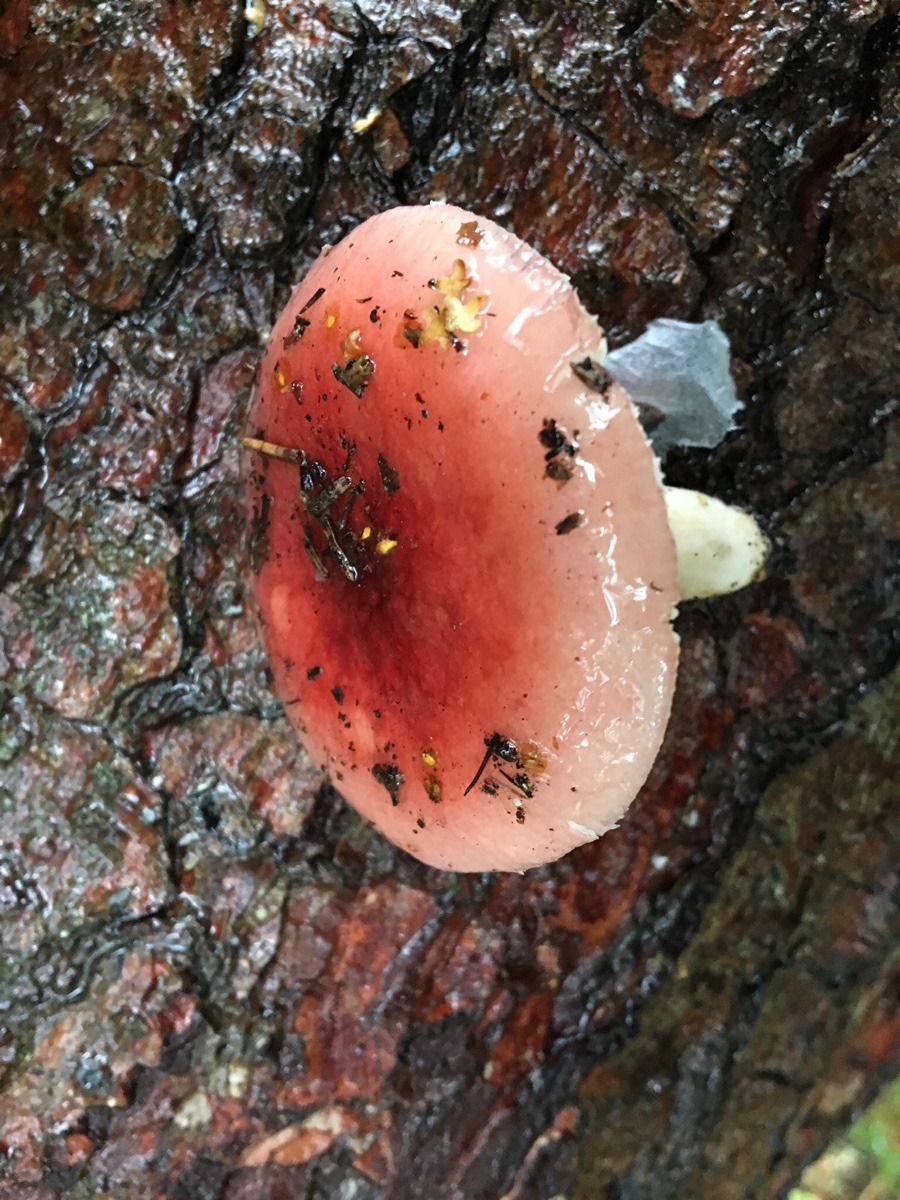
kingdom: Fungi
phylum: Basidiomycota
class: Agaricomycetes
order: Russulales
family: Russulaceae
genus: Russula
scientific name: Russula
